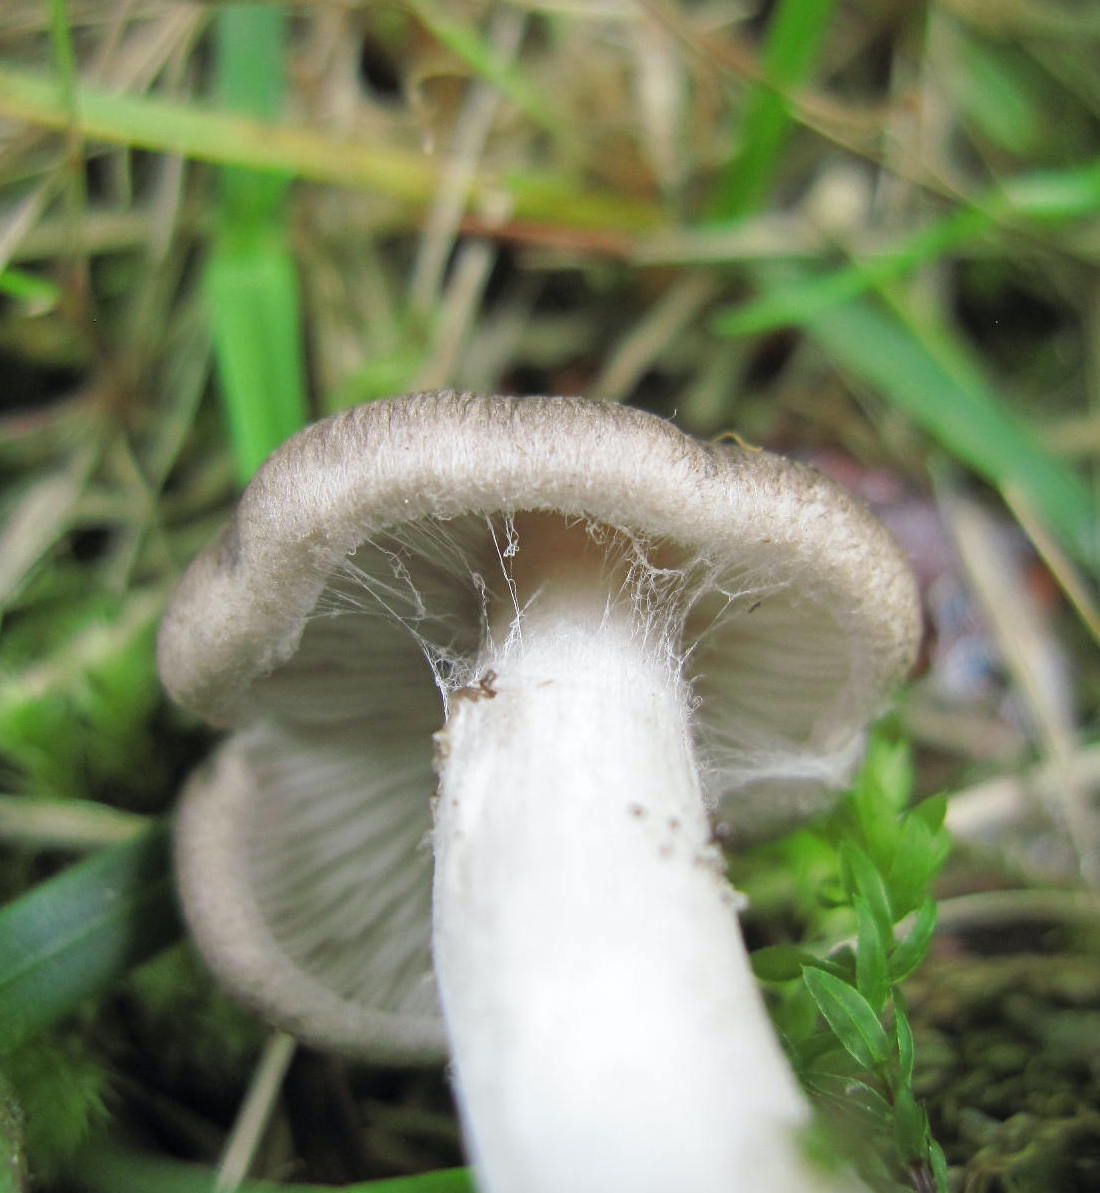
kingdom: Fungi
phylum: Basidiomycota
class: Agaricomycetes
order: Agaricales
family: Tricholomataceae
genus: Tricholoma
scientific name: Tricholoma argyraceum
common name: slør-ridderhat
